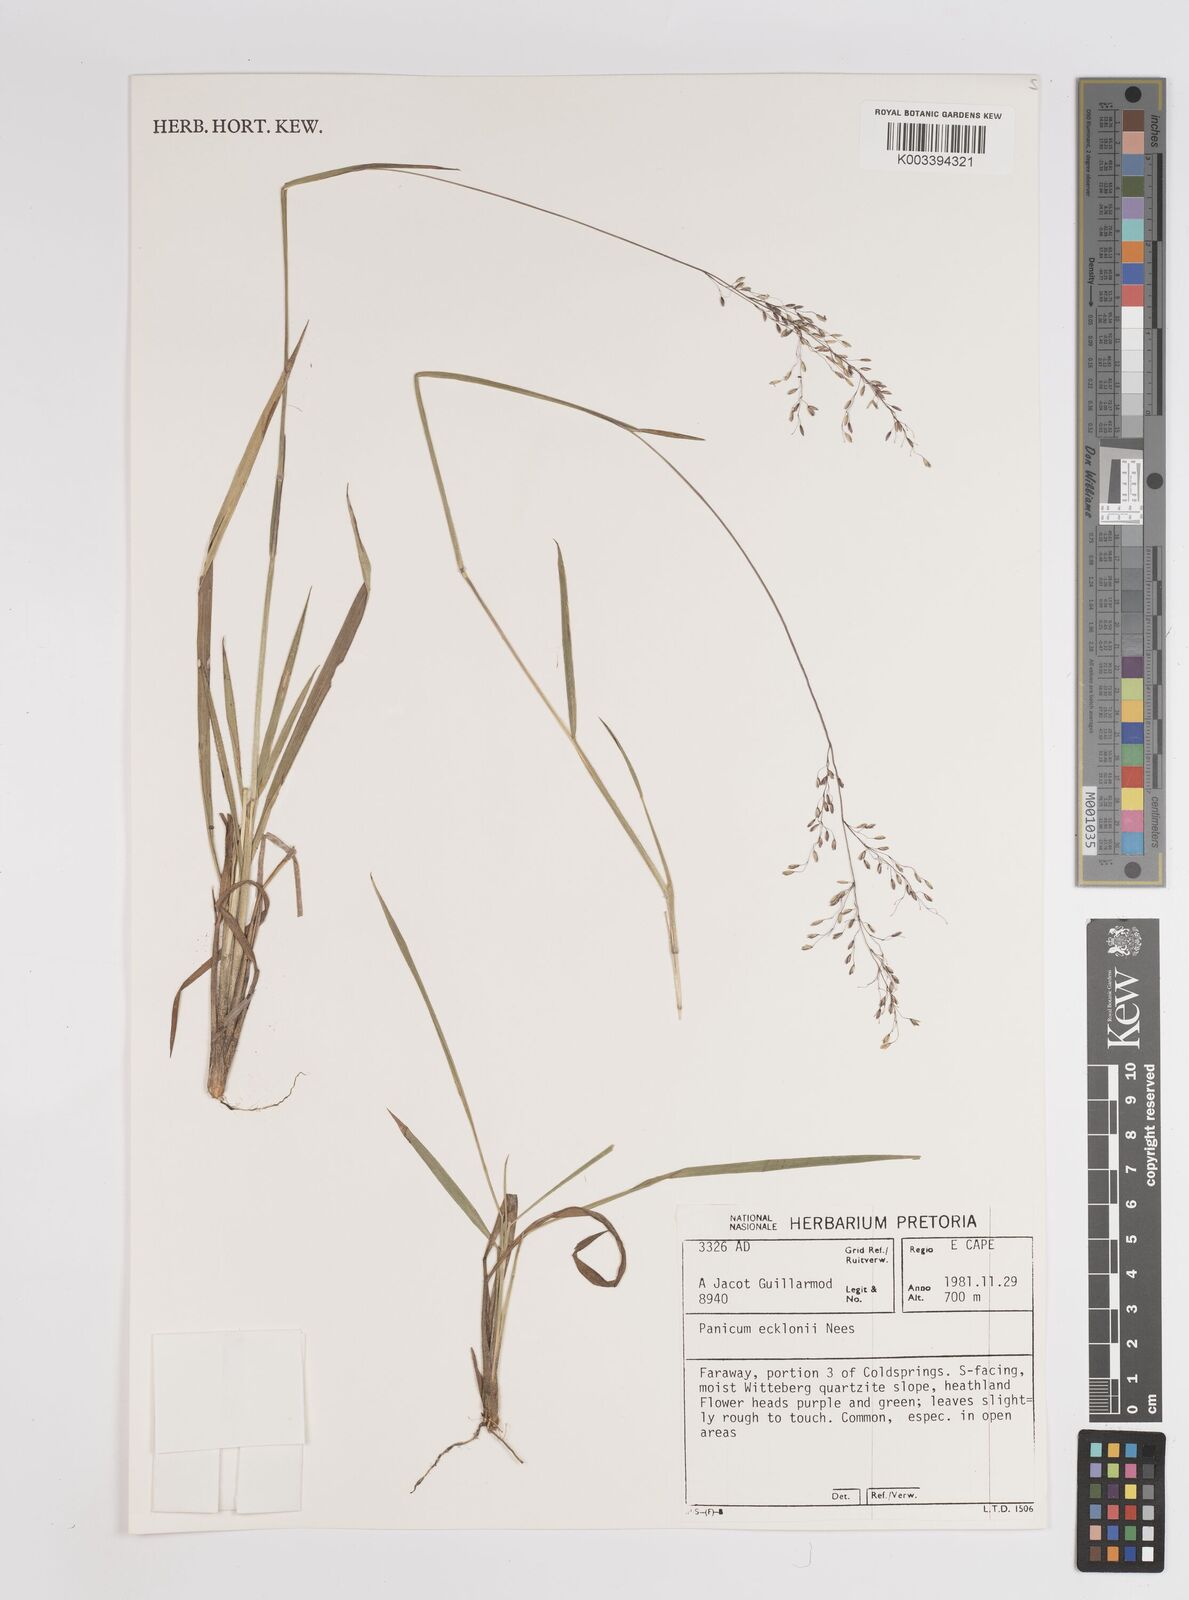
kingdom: Plantae
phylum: Tracheophyta
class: Liliopsida
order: Poales
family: Poaceae
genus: Adenochloa
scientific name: Adenochloa ecklonii
